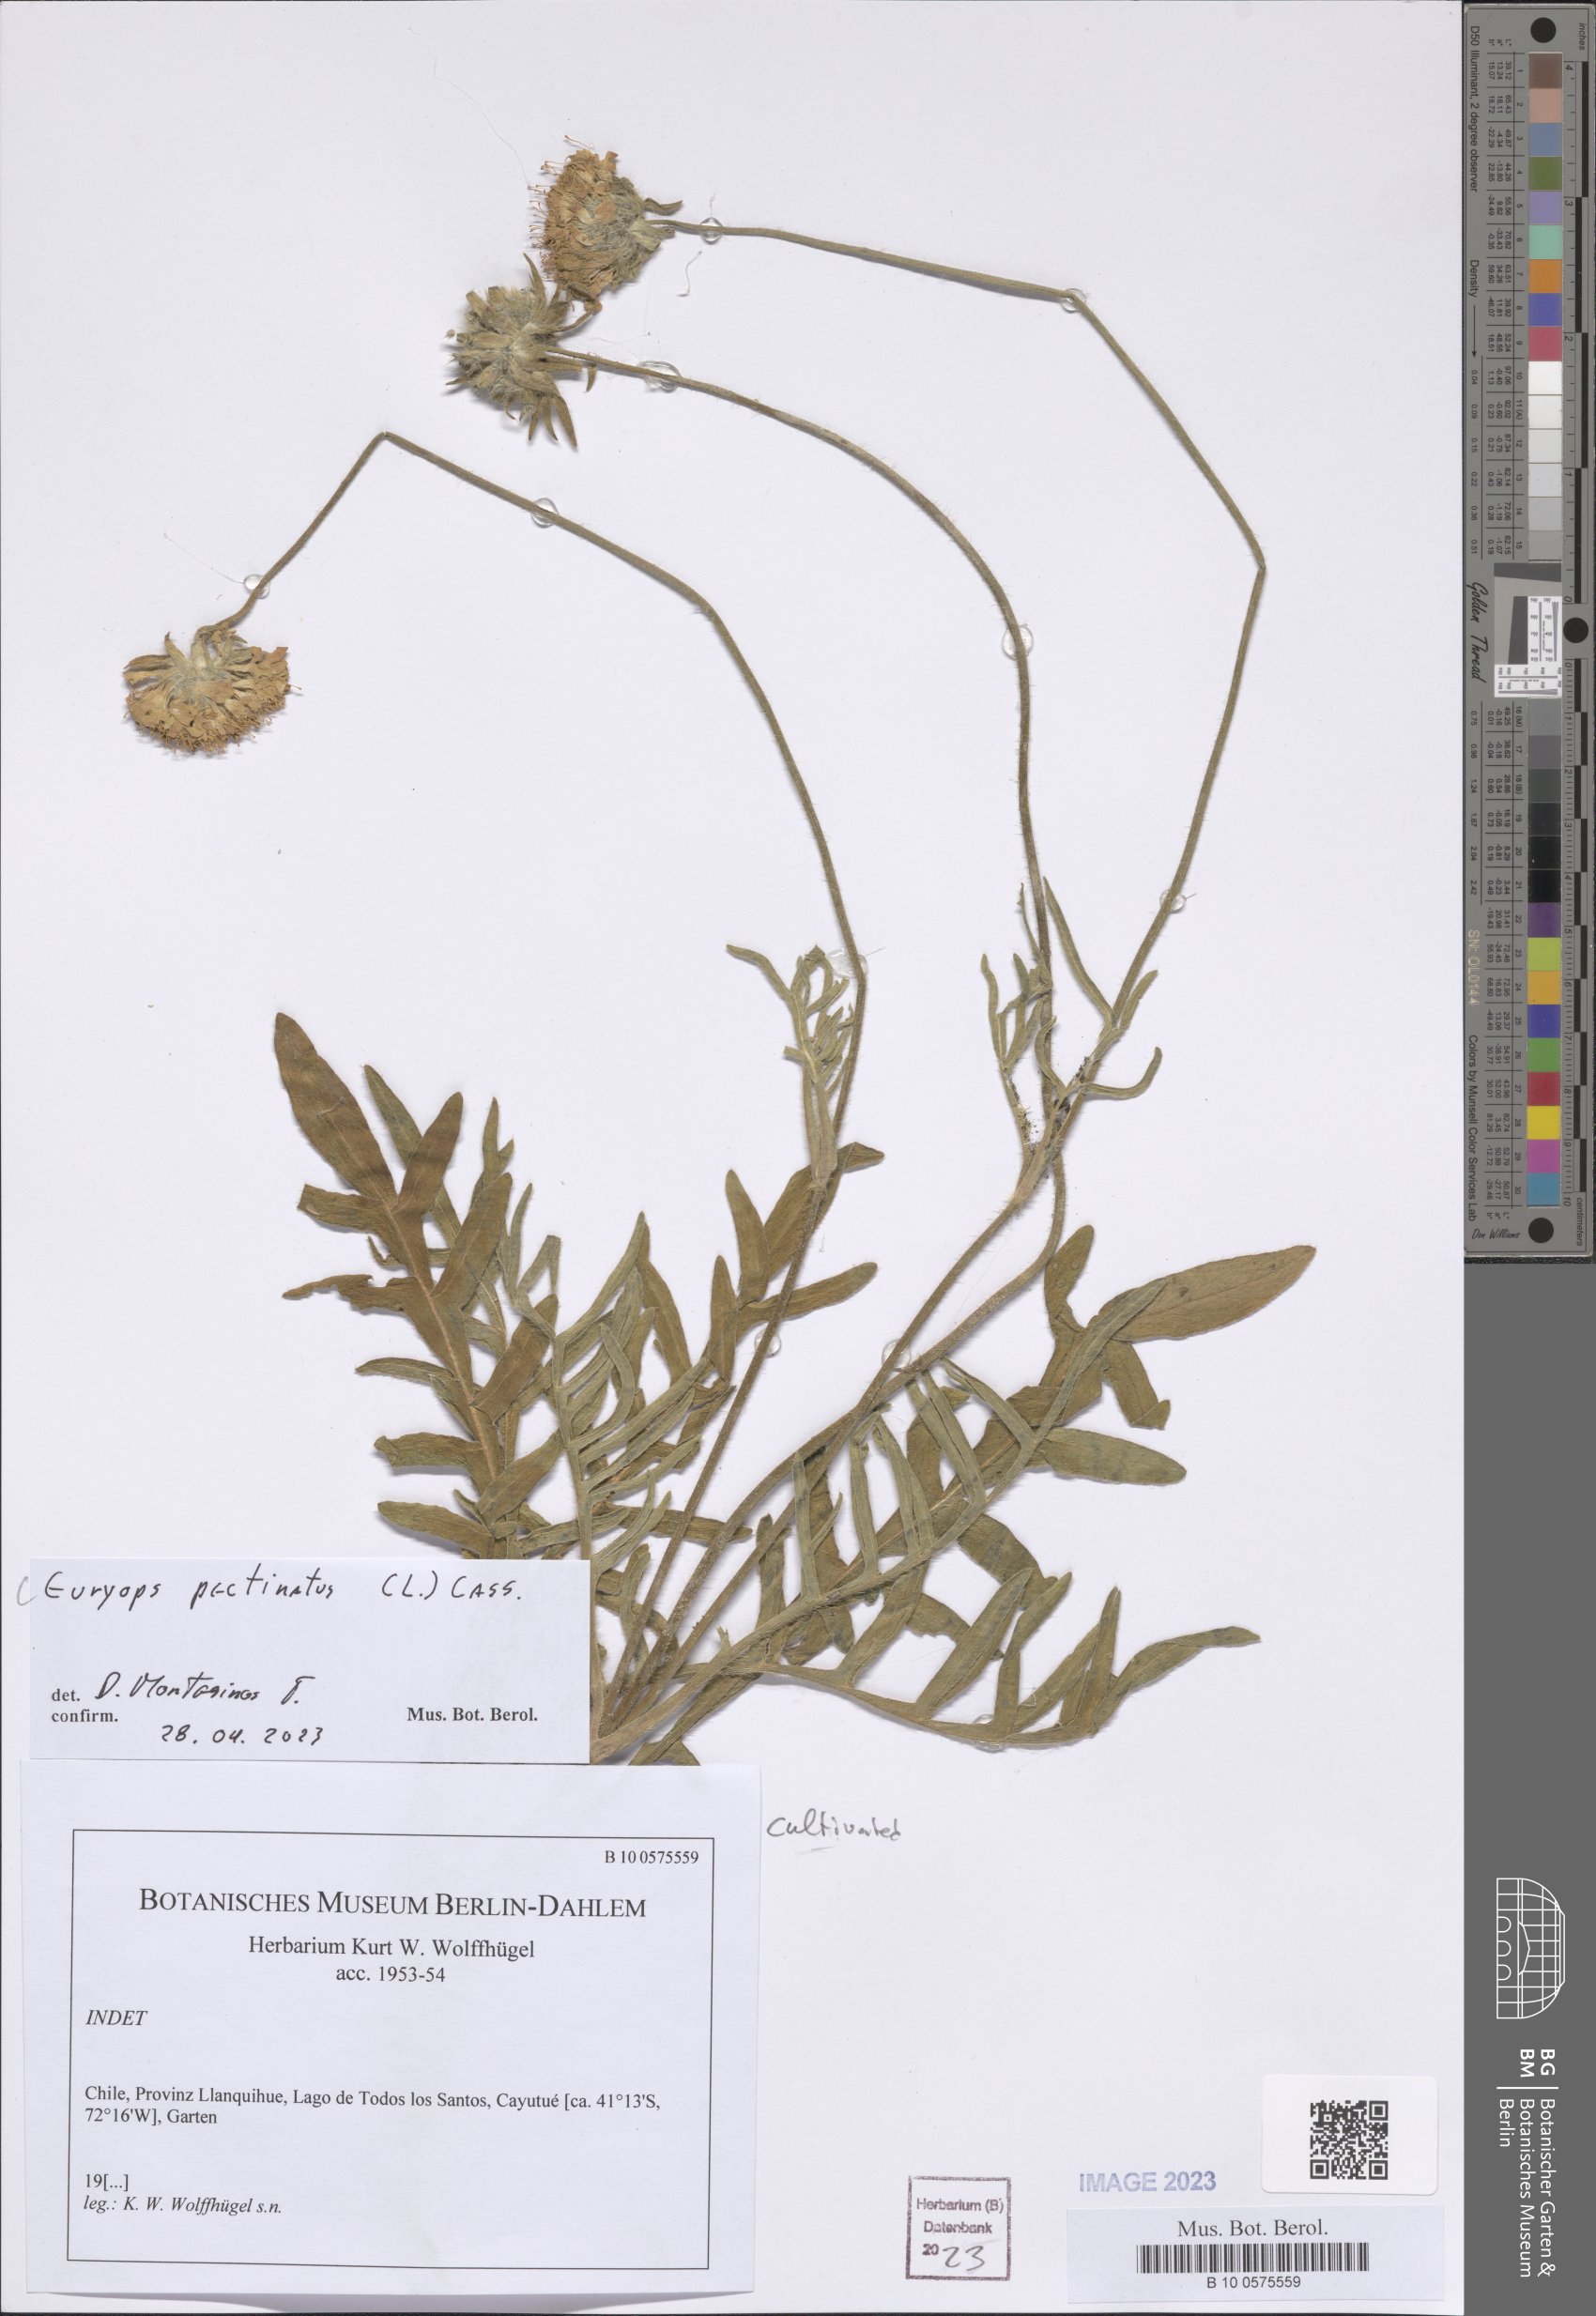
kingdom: Plantae
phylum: Tracheophyta
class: Magnoliopsida
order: Asterales
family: Asteraceae
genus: Euryops
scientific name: Euryops pectinatus
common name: Gray-leaf euryops
